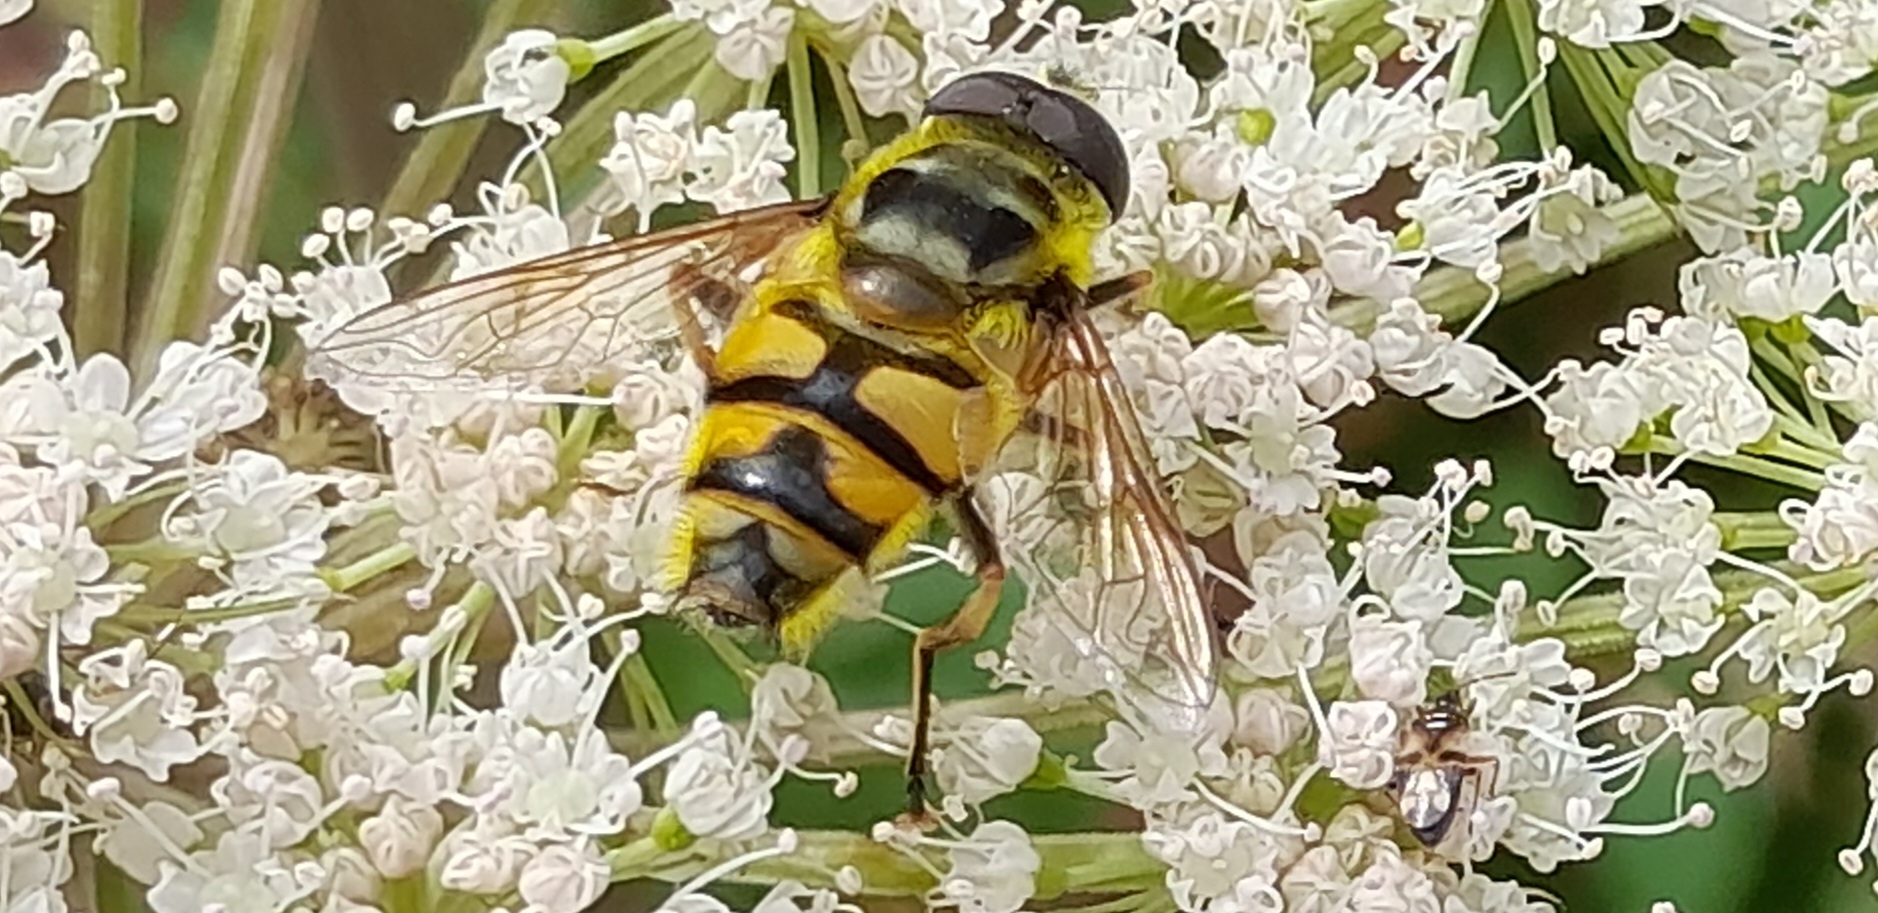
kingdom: Animalia
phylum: Arthropoda
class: Insecta
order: Diptera
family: Syrphidae
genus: Myathropa
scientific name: Myathropa florea
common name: Dødningehoved-svirreflue
